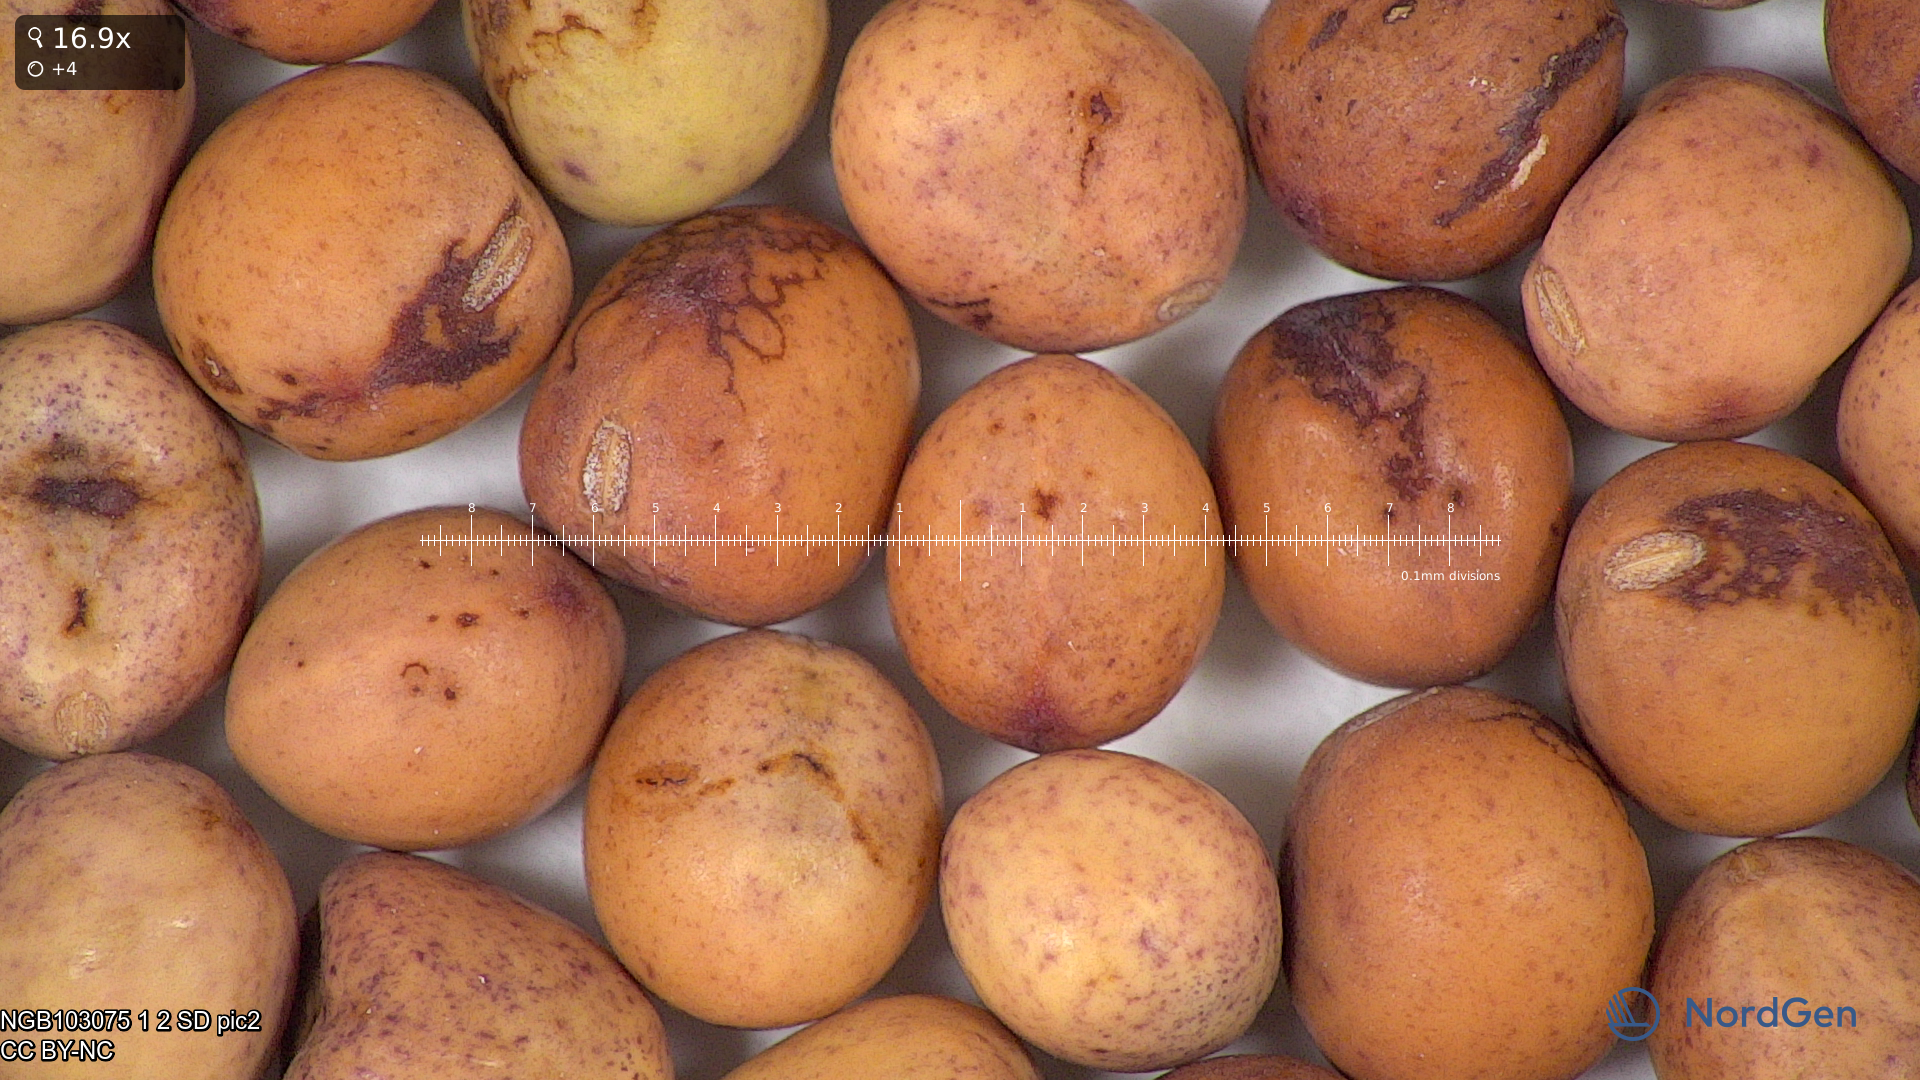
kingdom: Plantae
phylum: Tracheophyta
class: Magnoliopsida
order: Fabales
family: Fabaceae
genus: Lathyrus
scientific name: Lathyrus oleraceus
